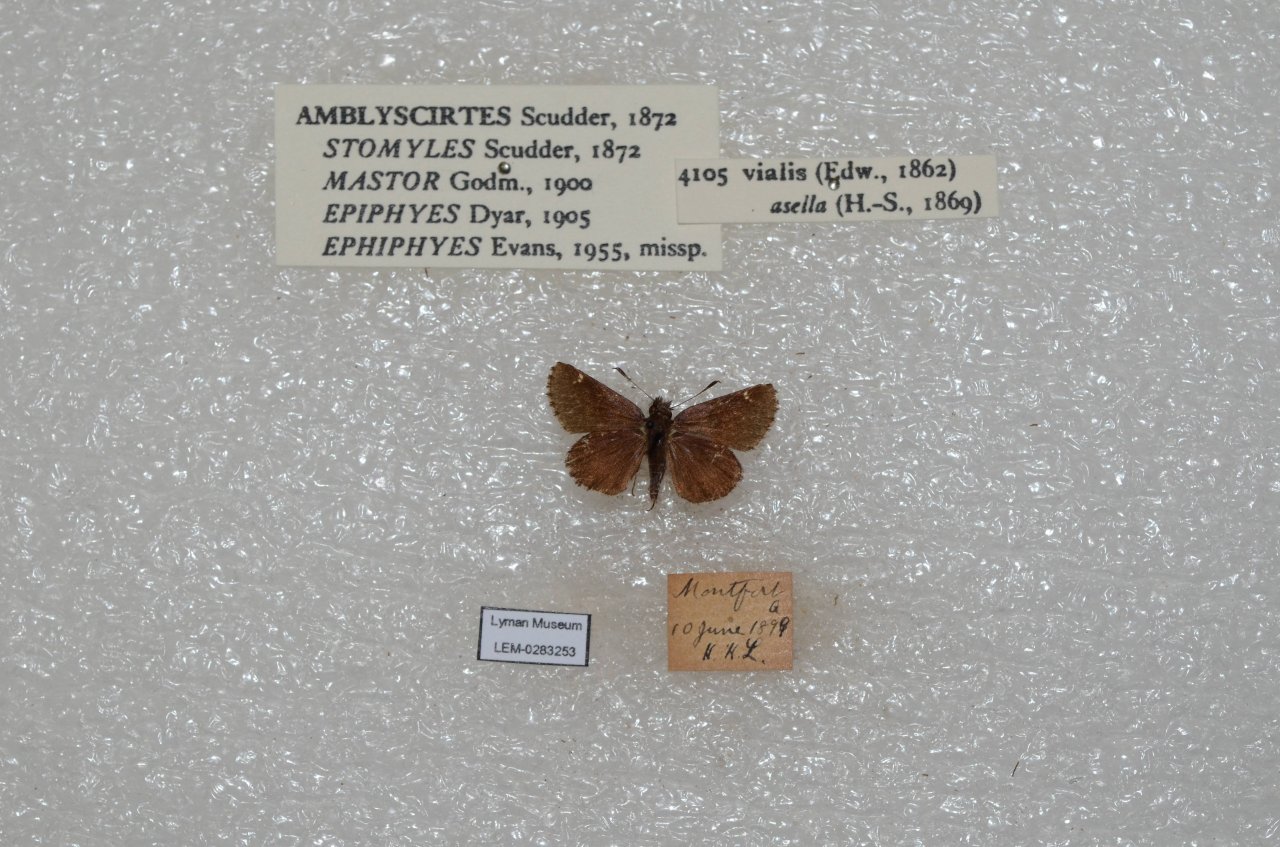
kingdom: Animalia
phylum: Arthropoda
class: Insecta
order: Lepidoptera
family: Hesperiidae
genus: Mastor
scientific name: Mastor vialis
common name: Common Roadside-Skipper
